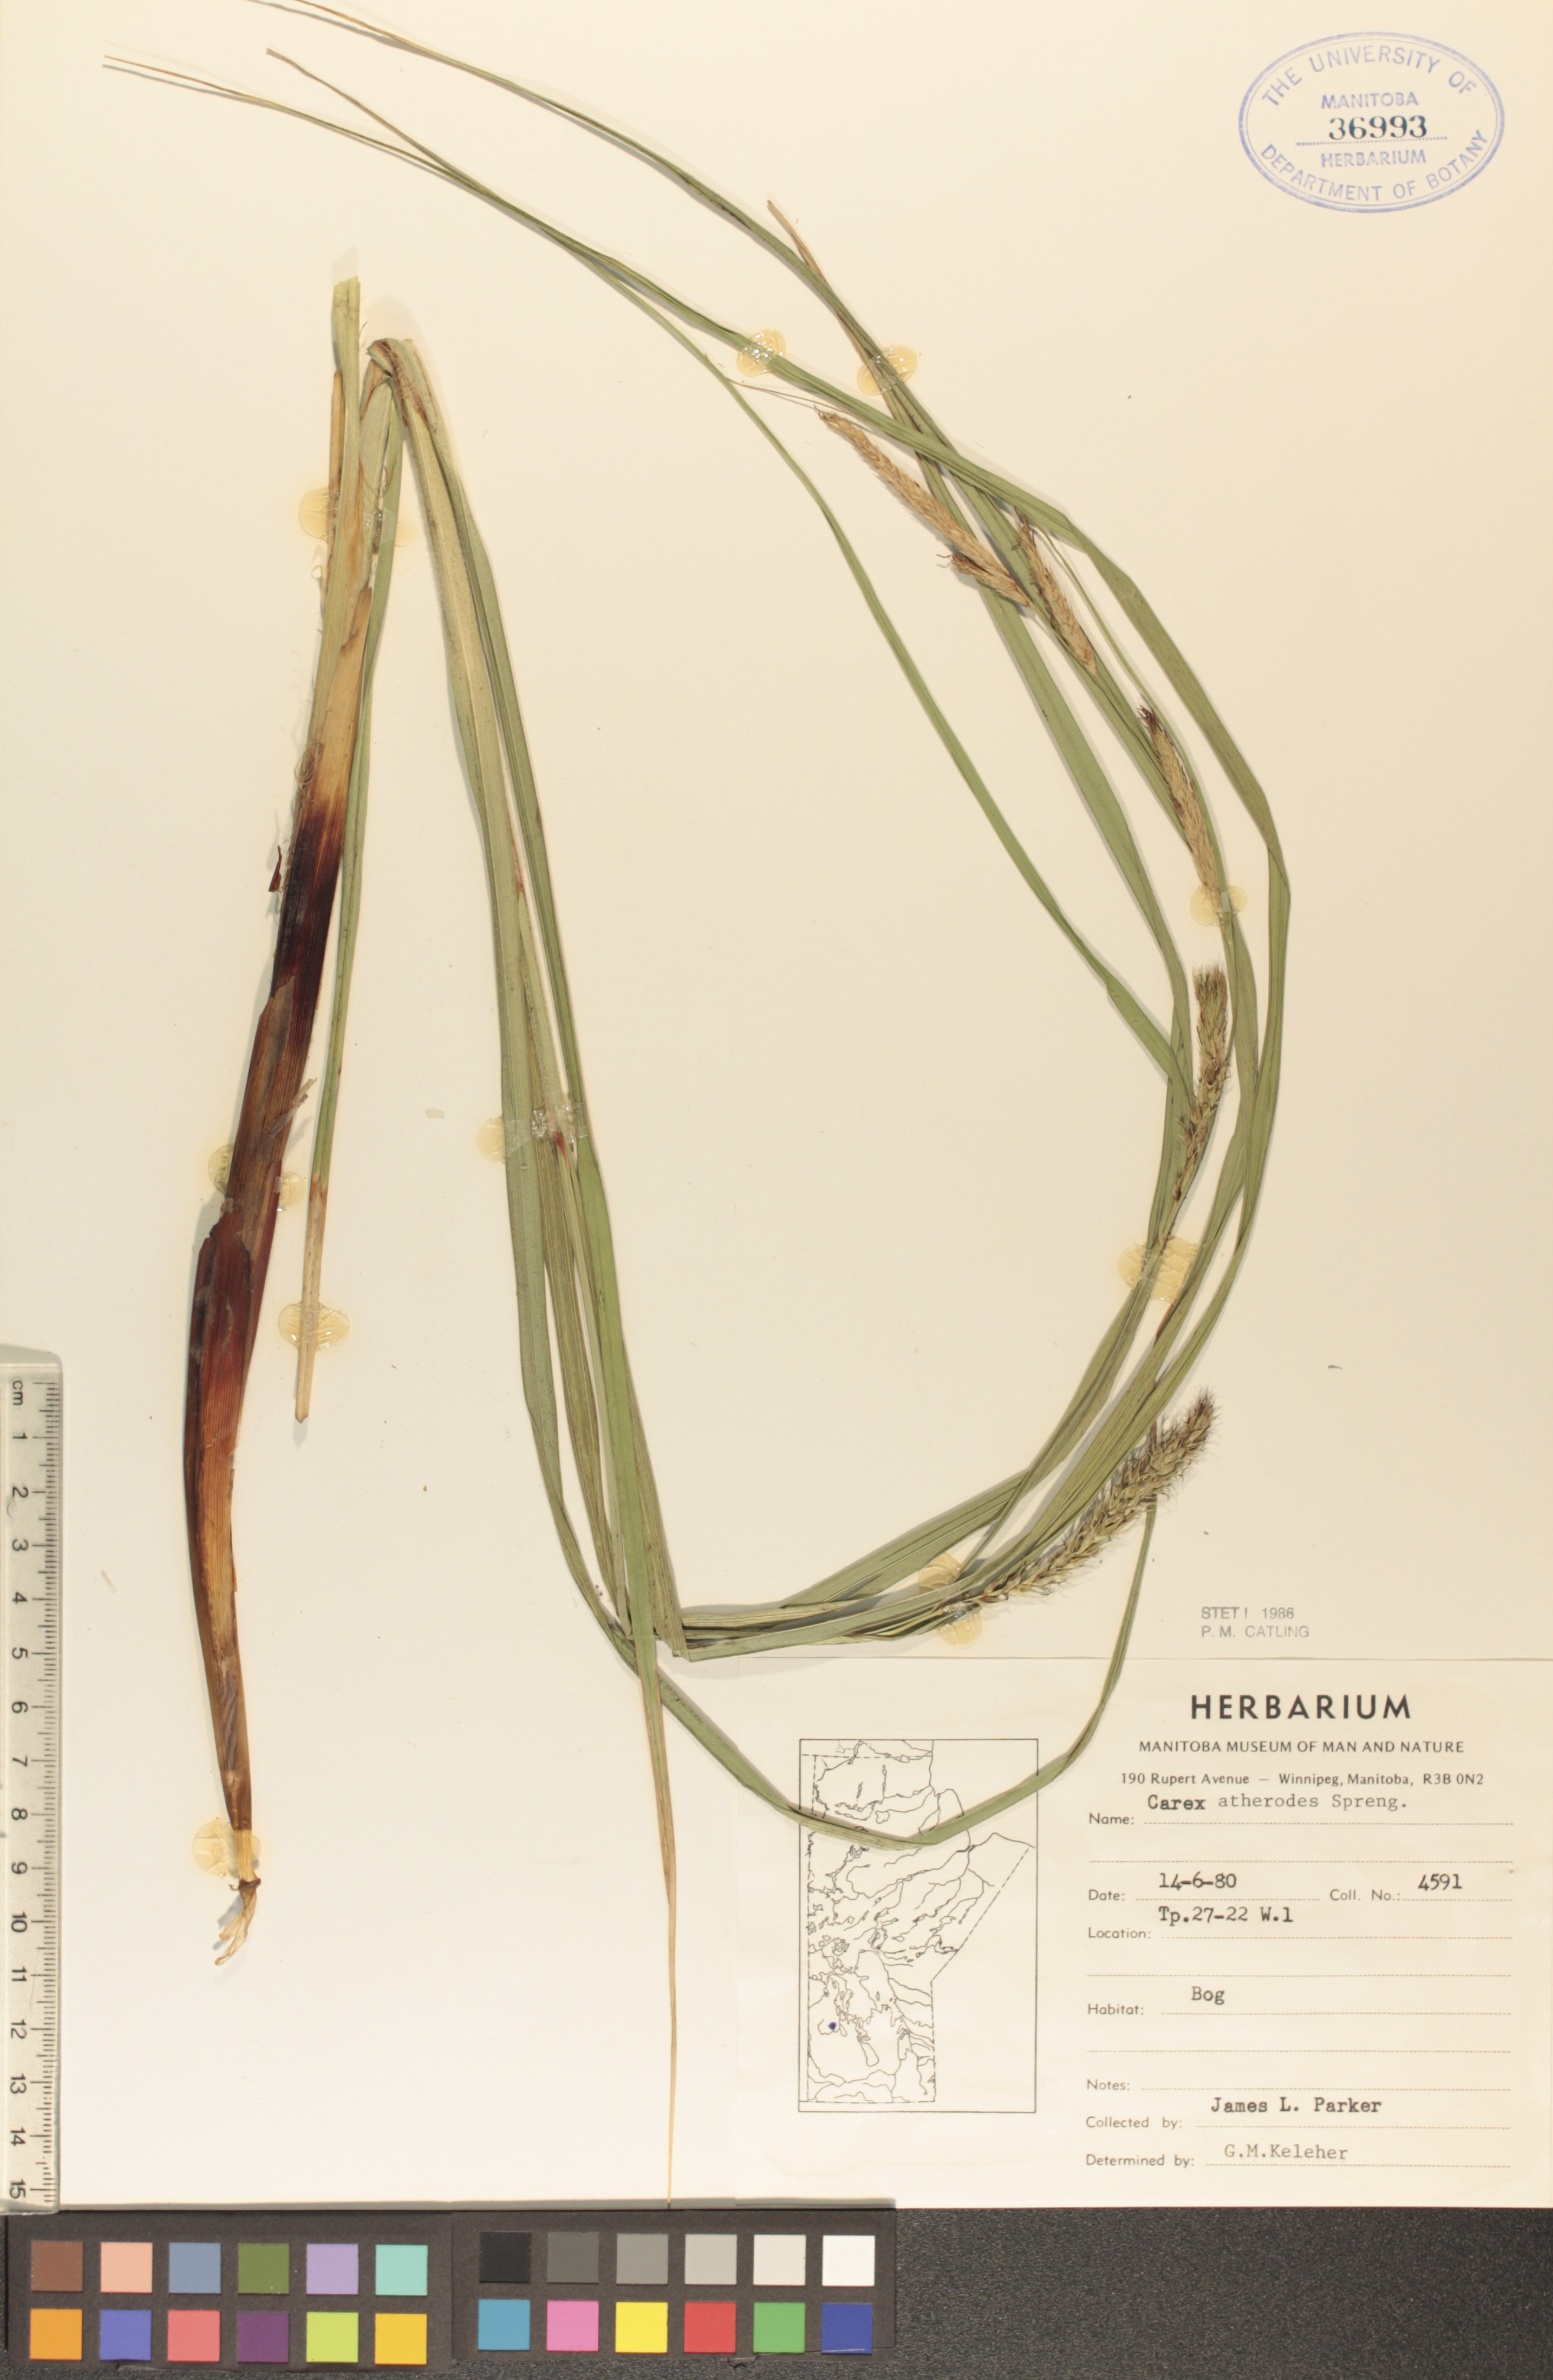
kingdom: Plantae
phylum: Tracheophyta
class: Liliopsida
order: Poales
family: Cyperaceae
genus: Carex
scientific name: Carex atherodes
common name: Wheat sedge
